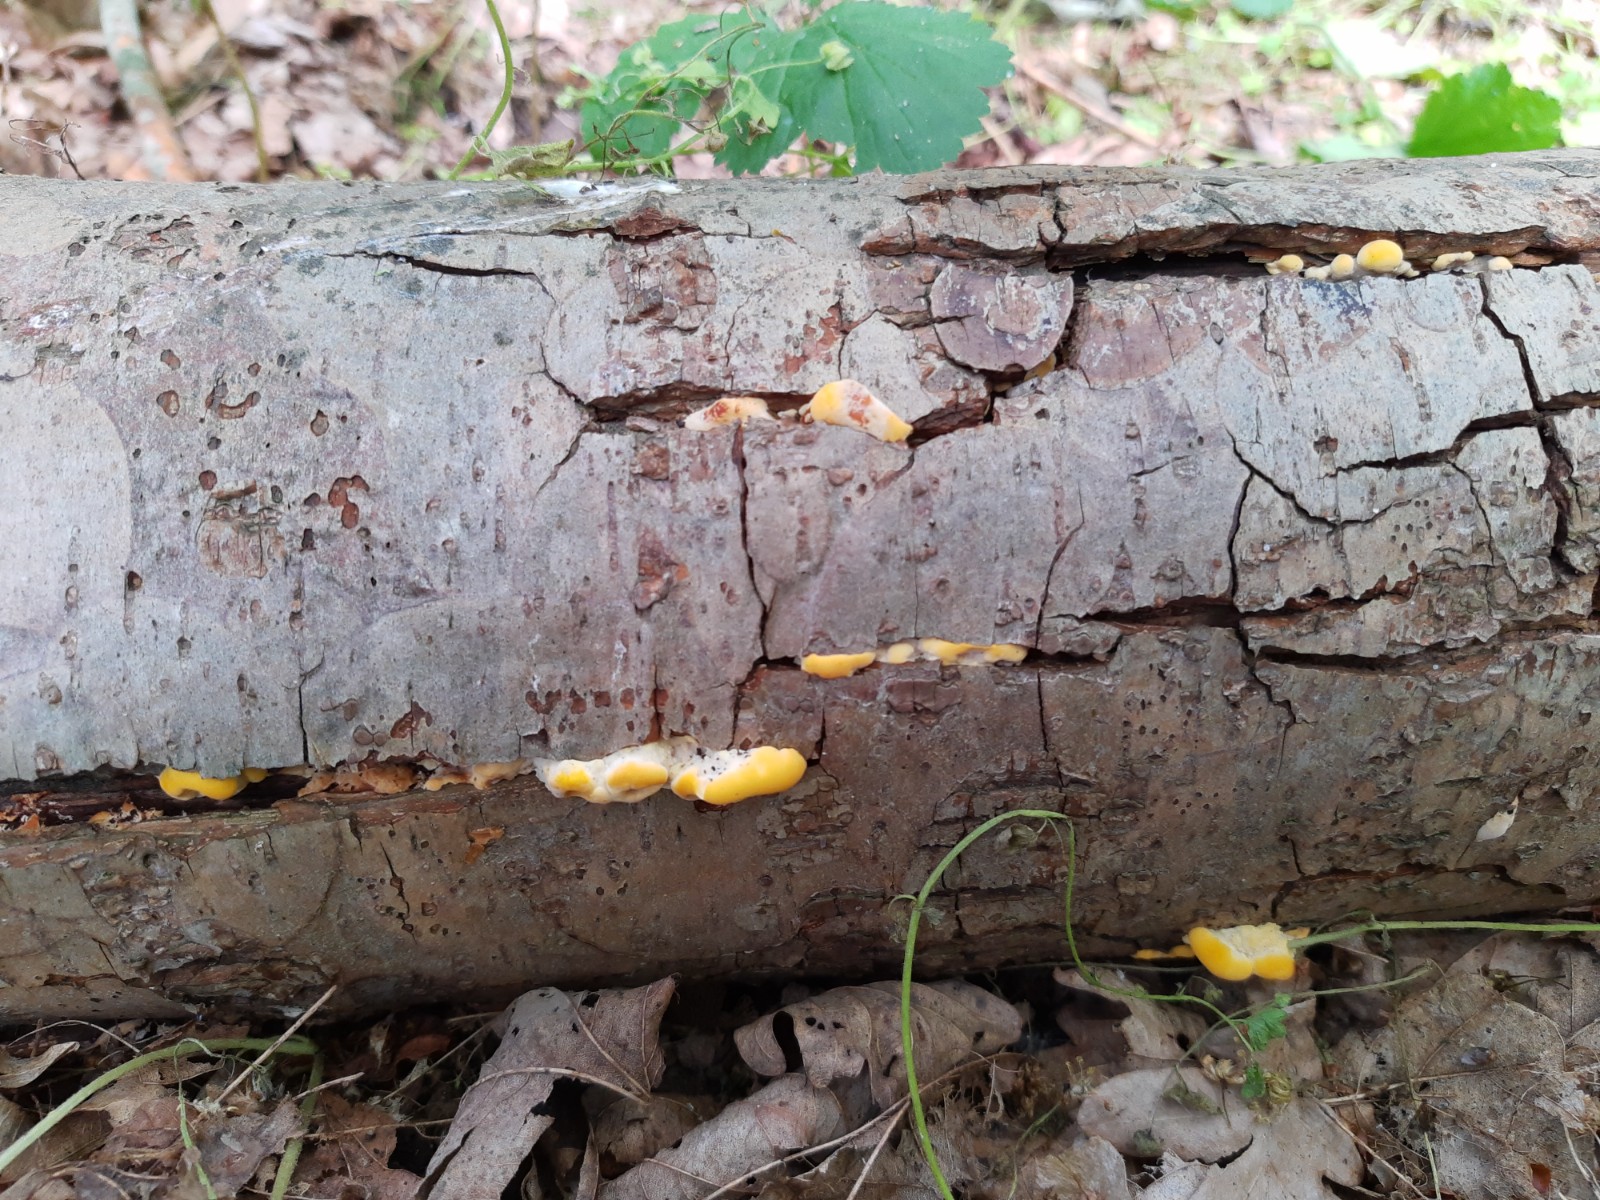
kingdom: Fungi
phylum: Basidiomycota
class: Agaricomycetes
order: Polyporales
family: Steccherinaceae
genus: Antrodiella
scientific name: Antrodiella serpula
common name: gulrandet elastikporesvamp
